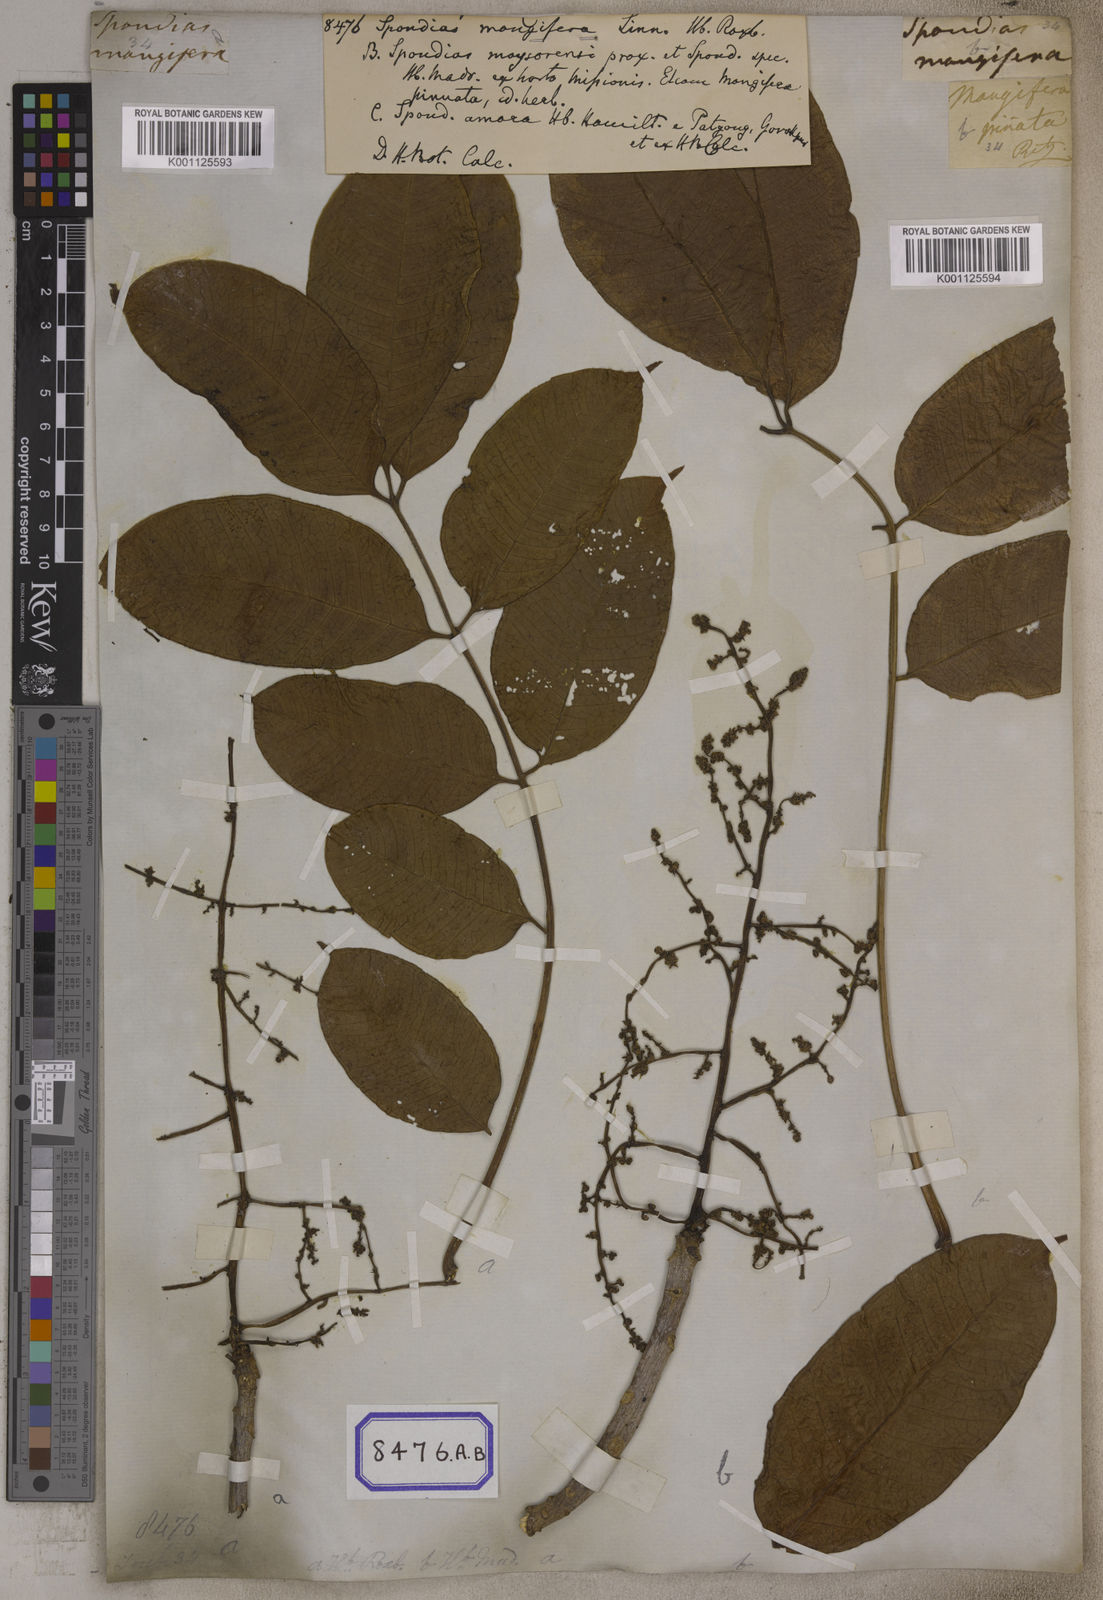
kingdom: Plantae
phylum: Tracheophyta
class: Magnoliopsida
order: Sapindales
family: Anacardiaceae
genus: Spondias
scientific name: Spondias
